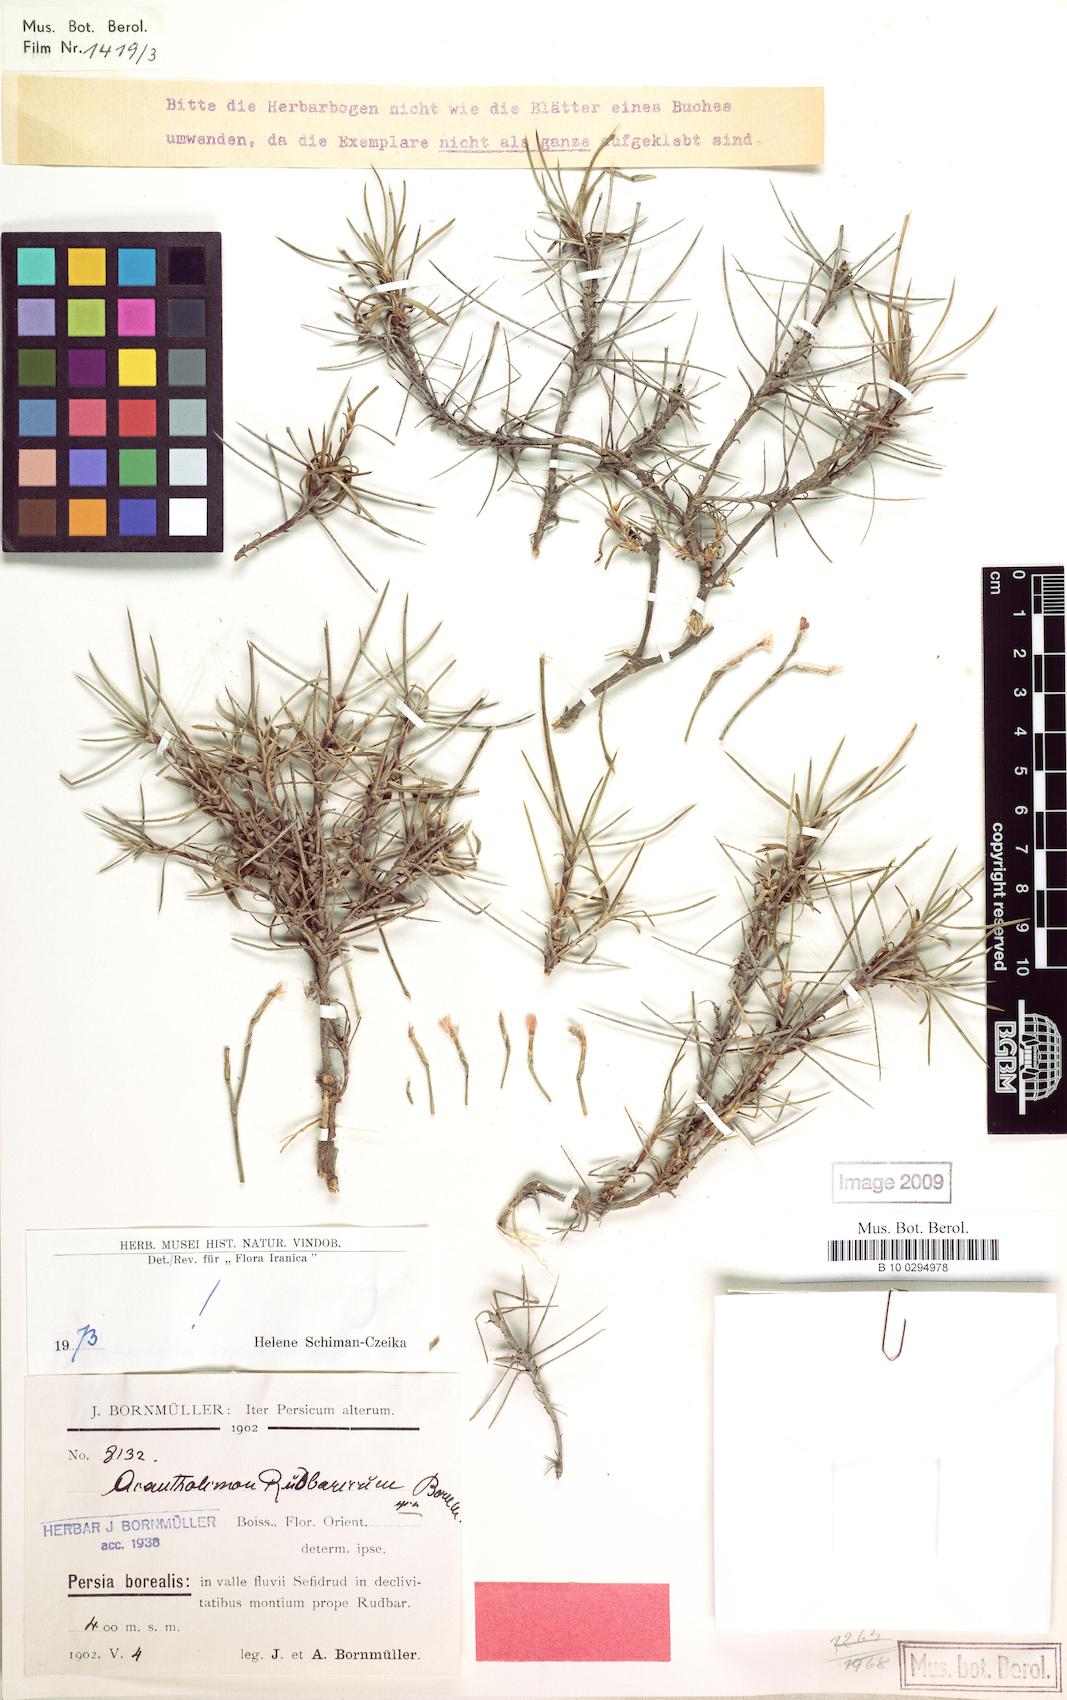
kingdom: Plantae
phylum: Tracheophyta
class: Magnoliopsida
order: Caryophyllales
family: Plumbaginaceae
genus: Acantholimon
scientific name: Acantholimon rudbaricum
